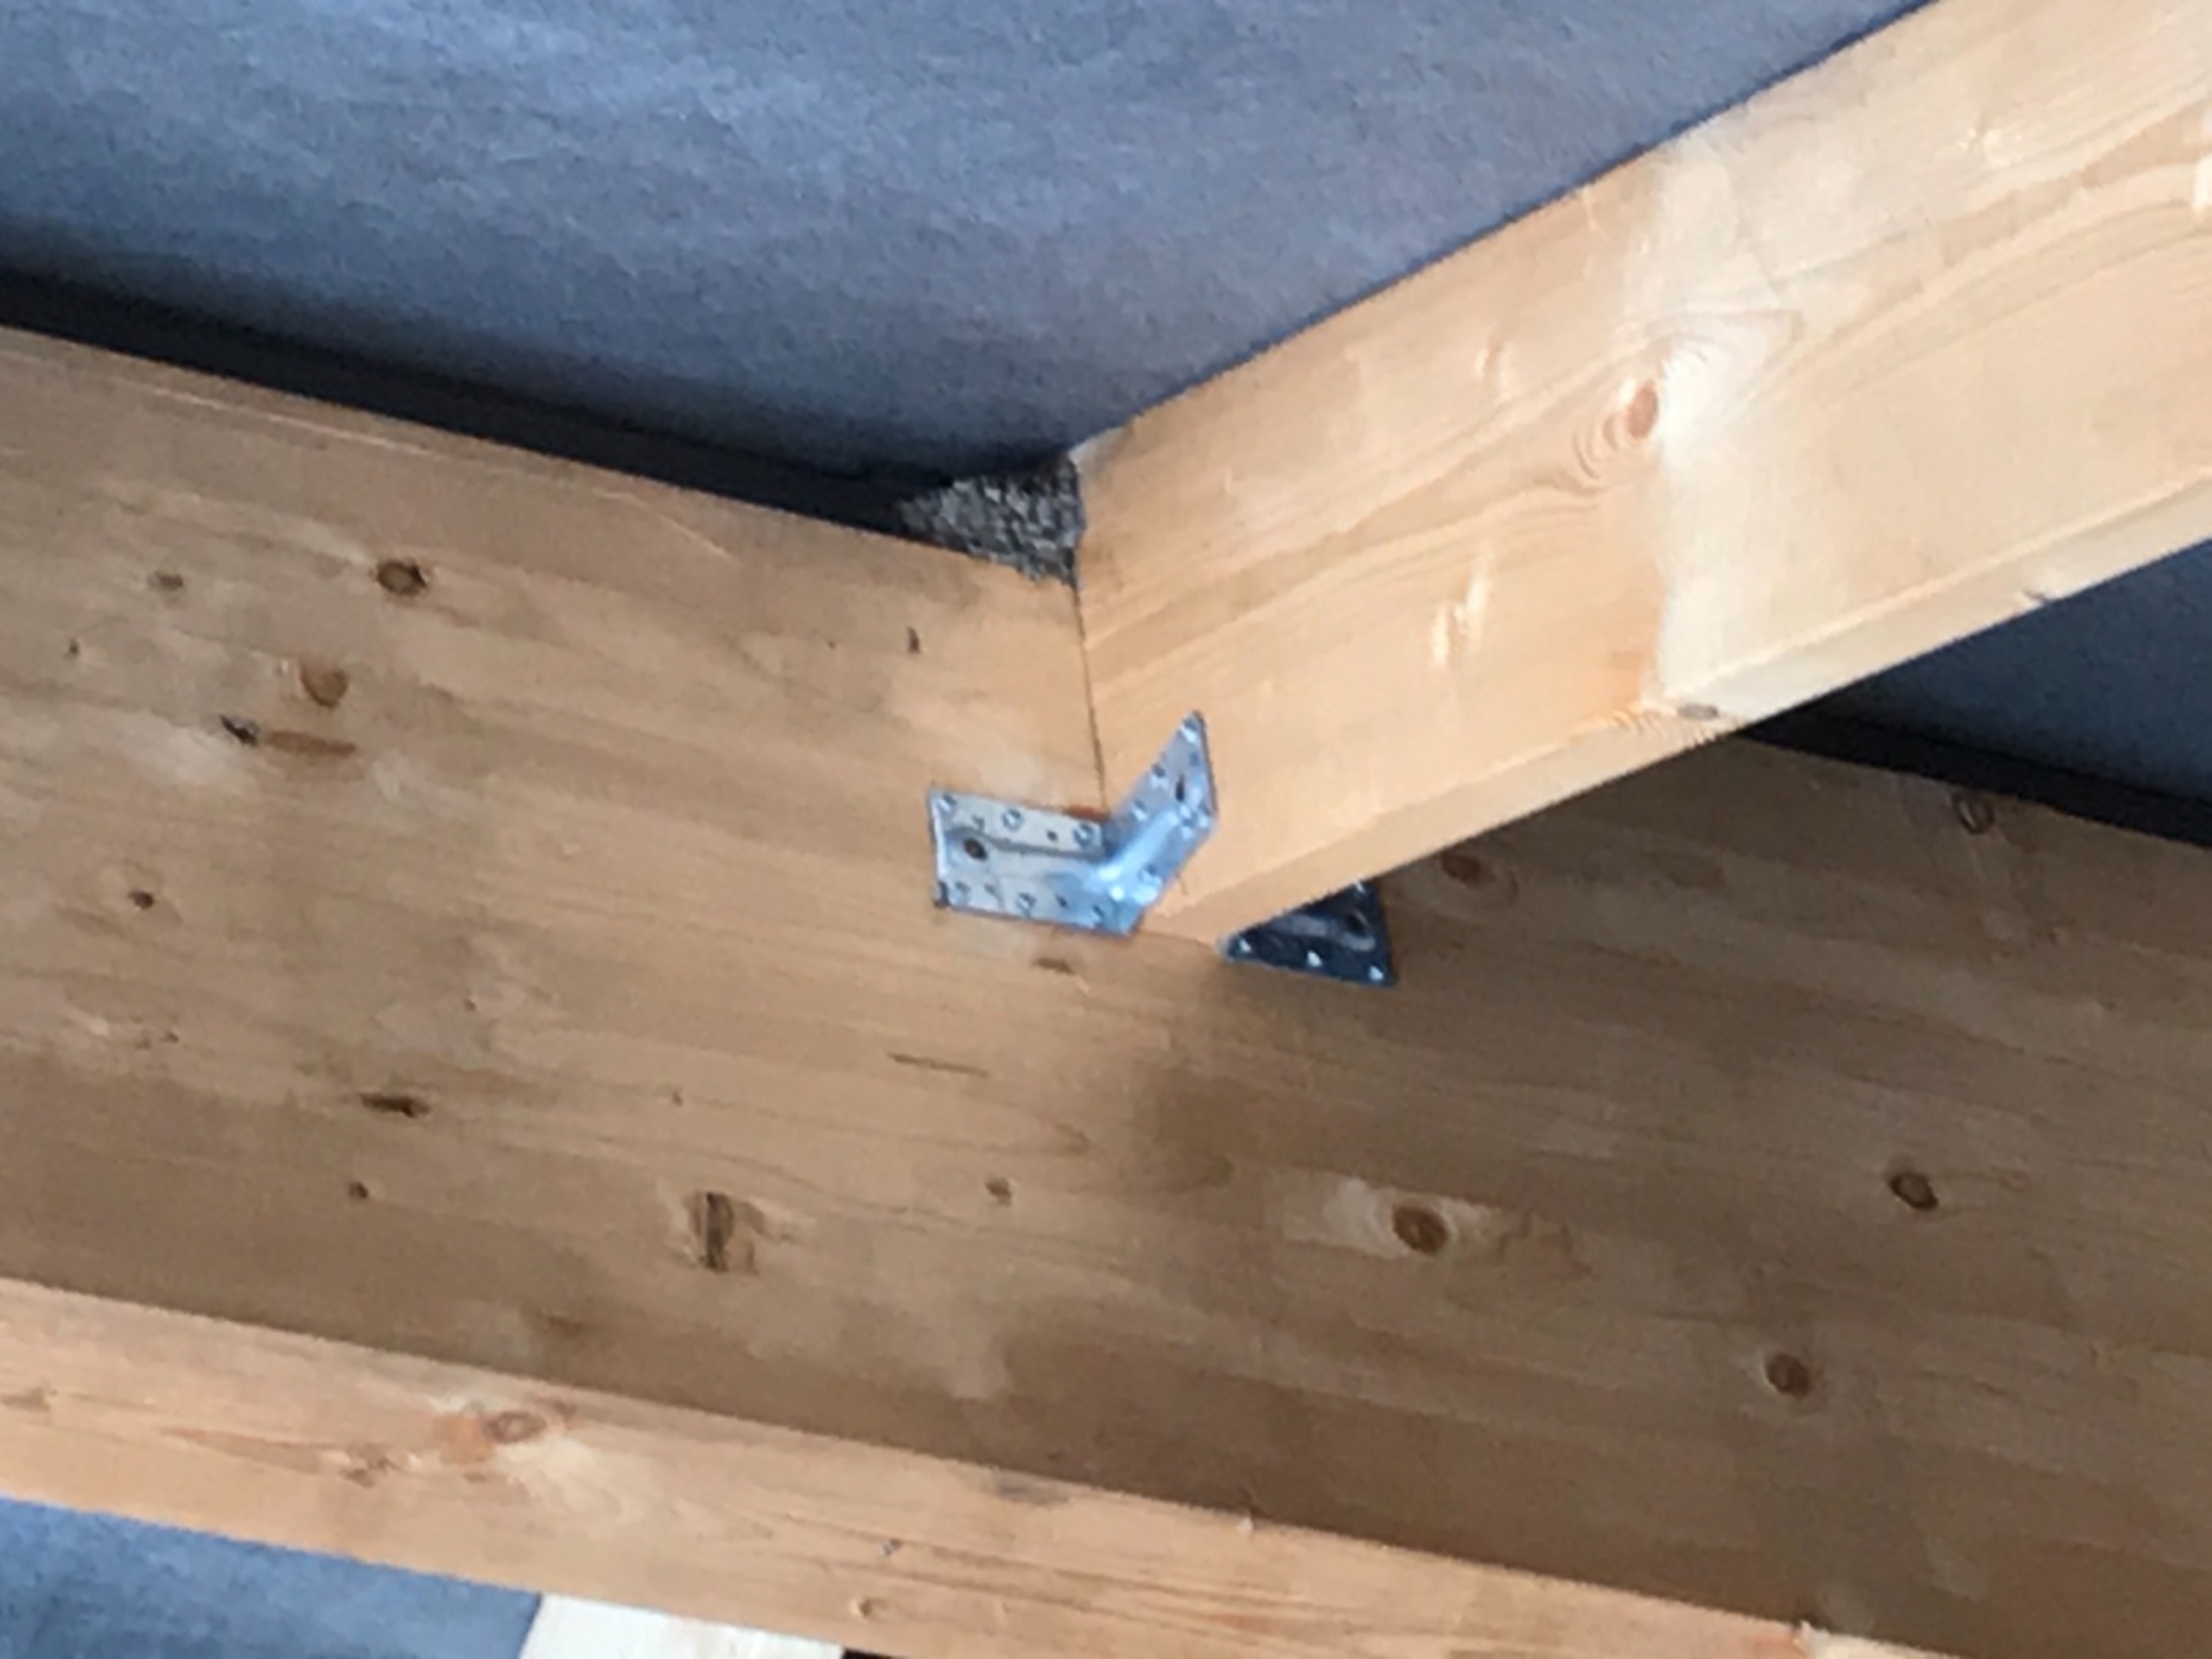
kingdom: Animalia
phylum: Chordata
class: Aves
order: Passeriformes
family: Hirundinidae
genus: Hirundo
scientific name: Hirundo rustica
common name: Landsvale
